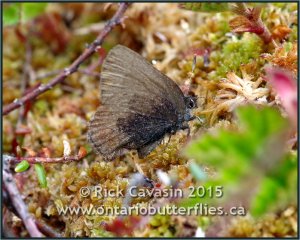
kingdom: Animalia
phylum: Arthropoda
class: Insecta
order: Lepidoptera
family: Lycaenidae
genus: Incisalia
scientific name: Incisalia irioides
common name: Brown Elfin
